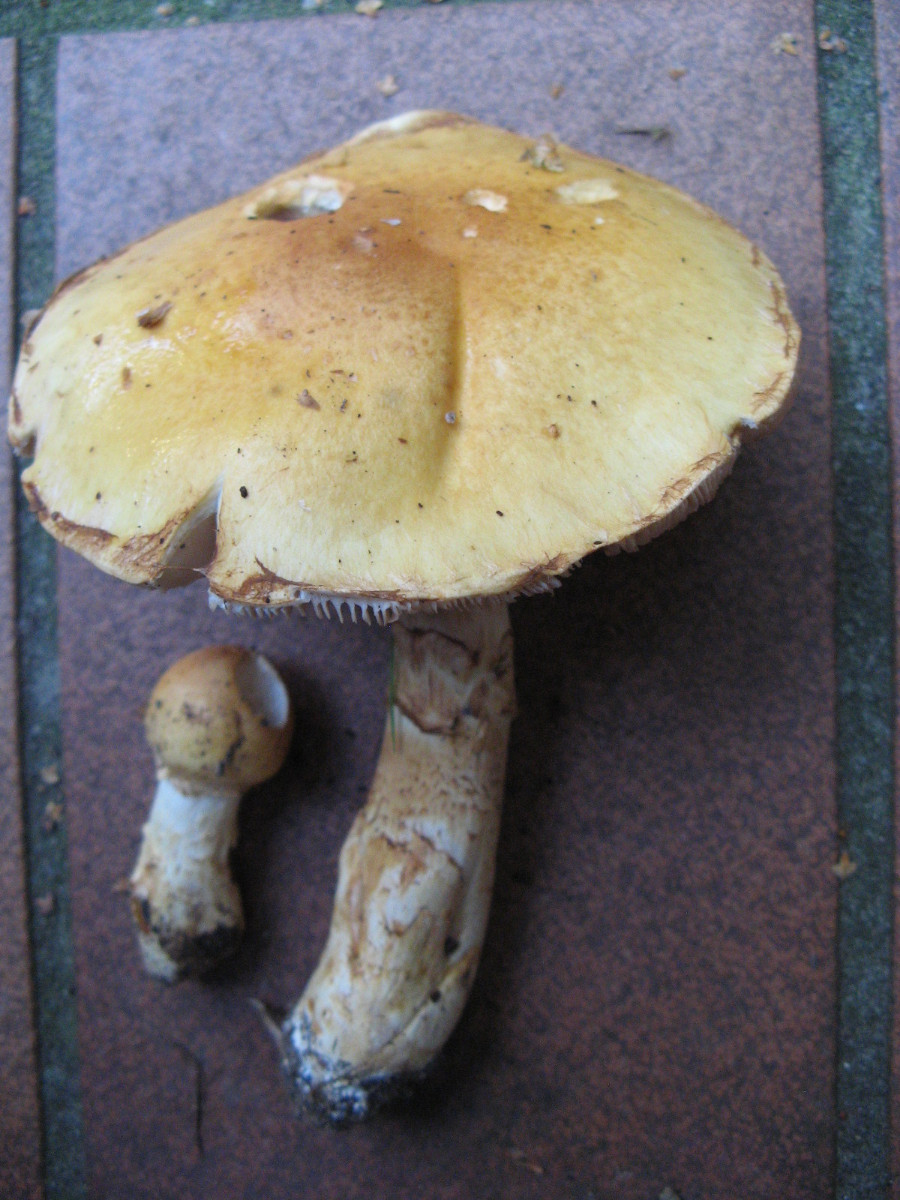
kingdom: Fungi
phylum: Basidiomycota
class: Agaricomycetes
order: Agaricales
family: Cortinariaceae
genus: Phlegmacium
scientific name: Phlegmacium triumphans
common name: gulbæltet slørhat
